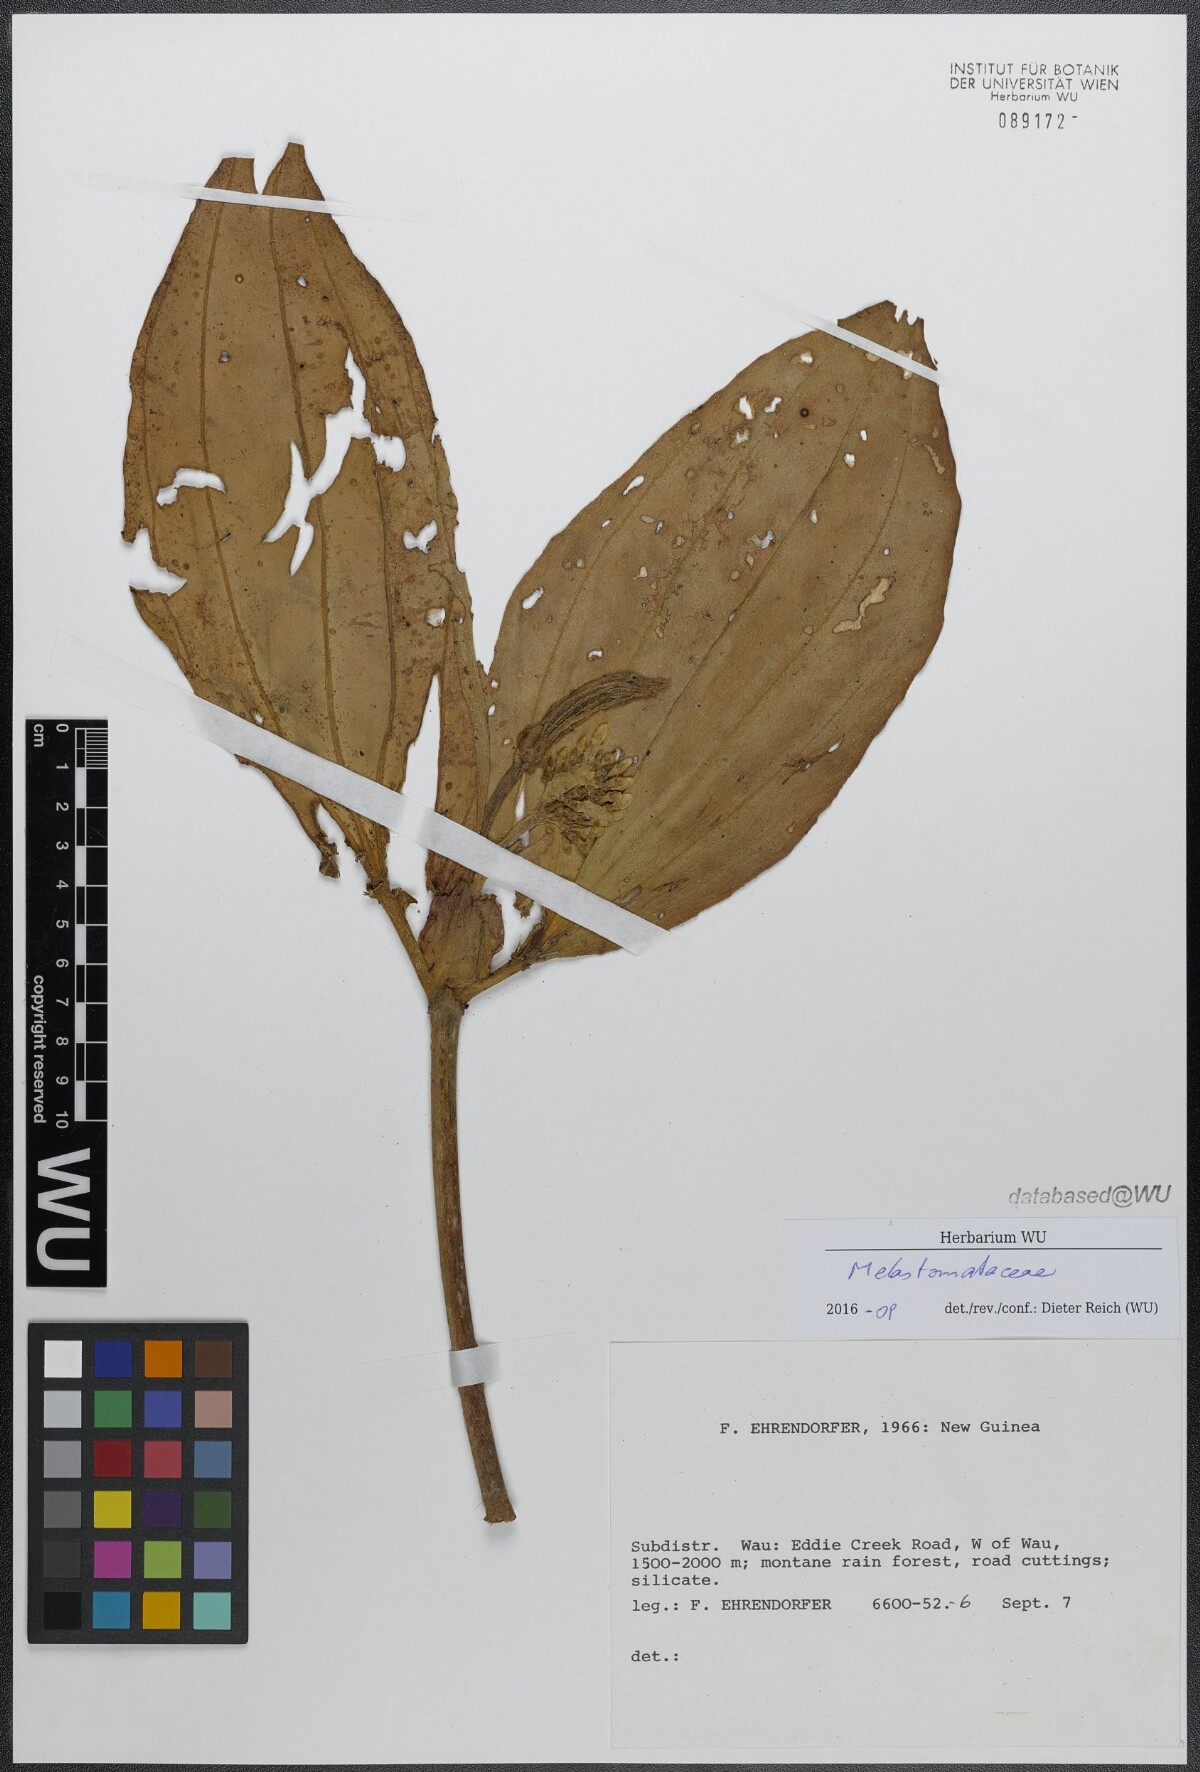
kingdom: Plantae
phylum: Tracheophyta
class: Magnoliopsida
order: Myrtales
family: Melastomataceae
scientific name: Melastomataceae
